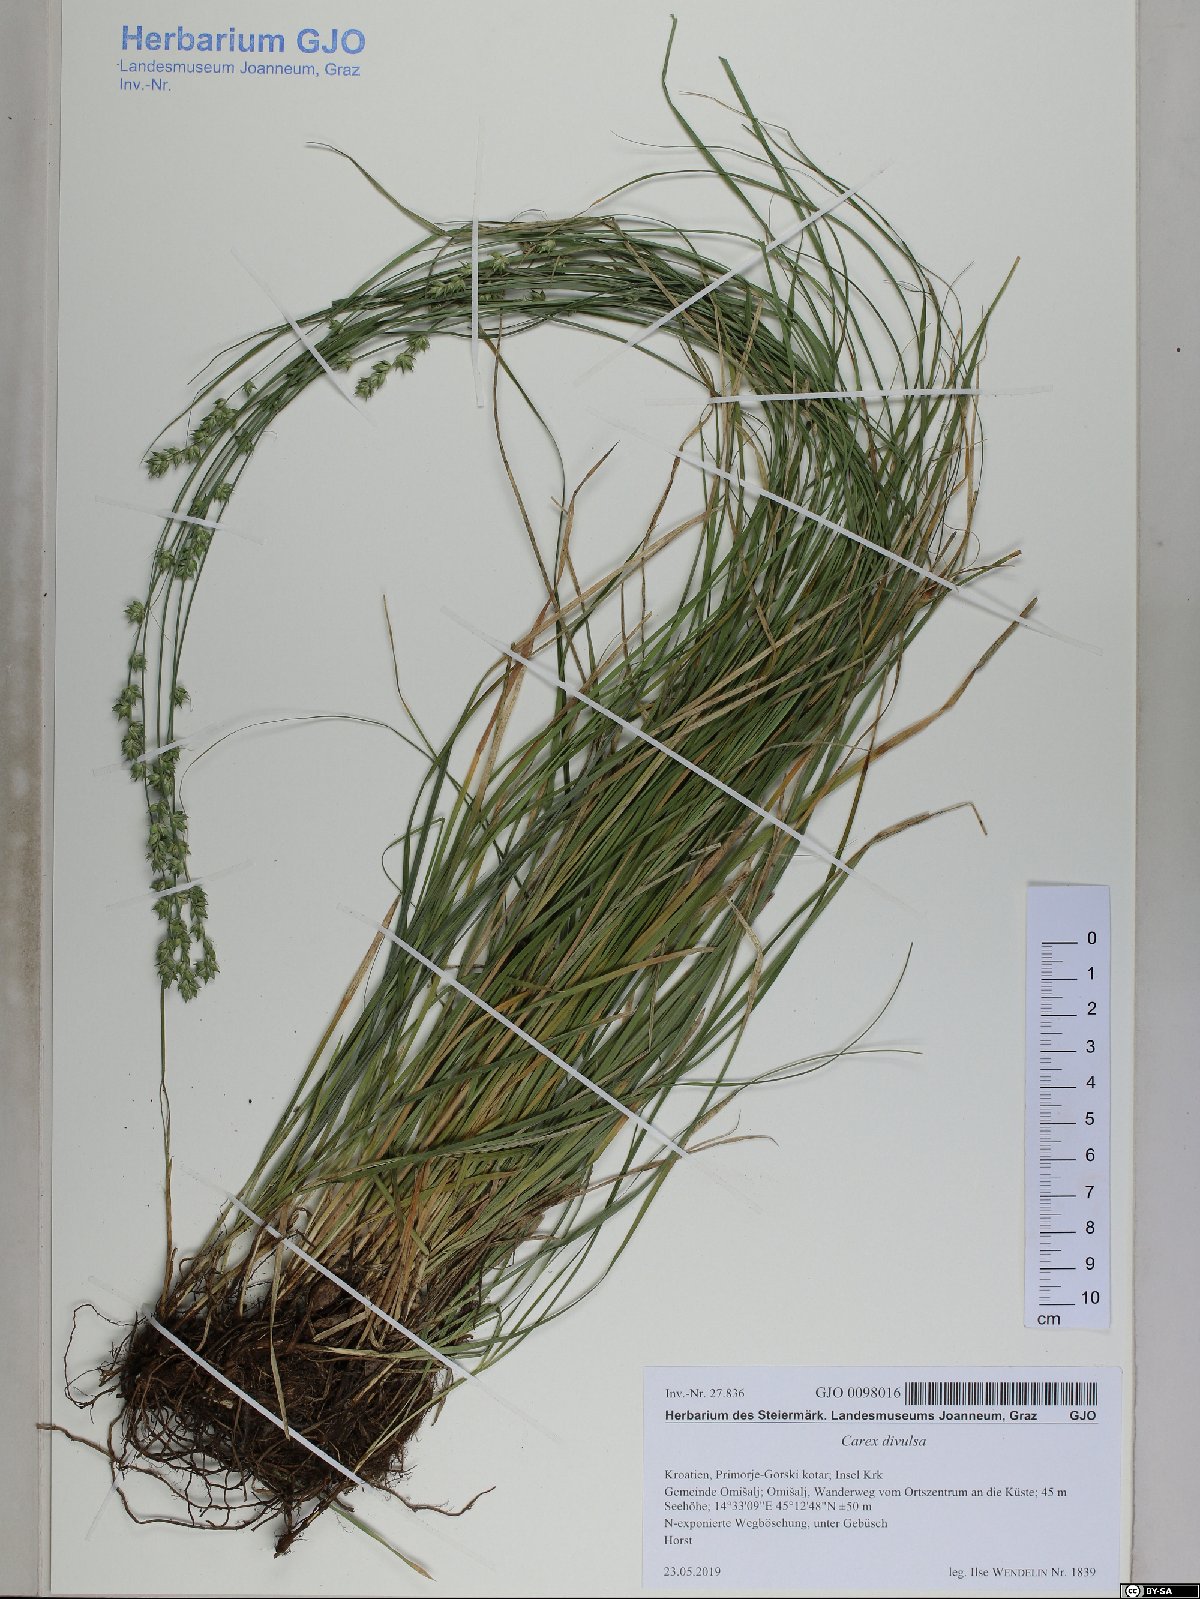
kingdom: Plantae
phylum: Tracheophyta
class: Liliopsida
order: Poales
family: Cyperaceae
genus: Carex
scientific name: Carex divulsa
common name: Grassland sedge
